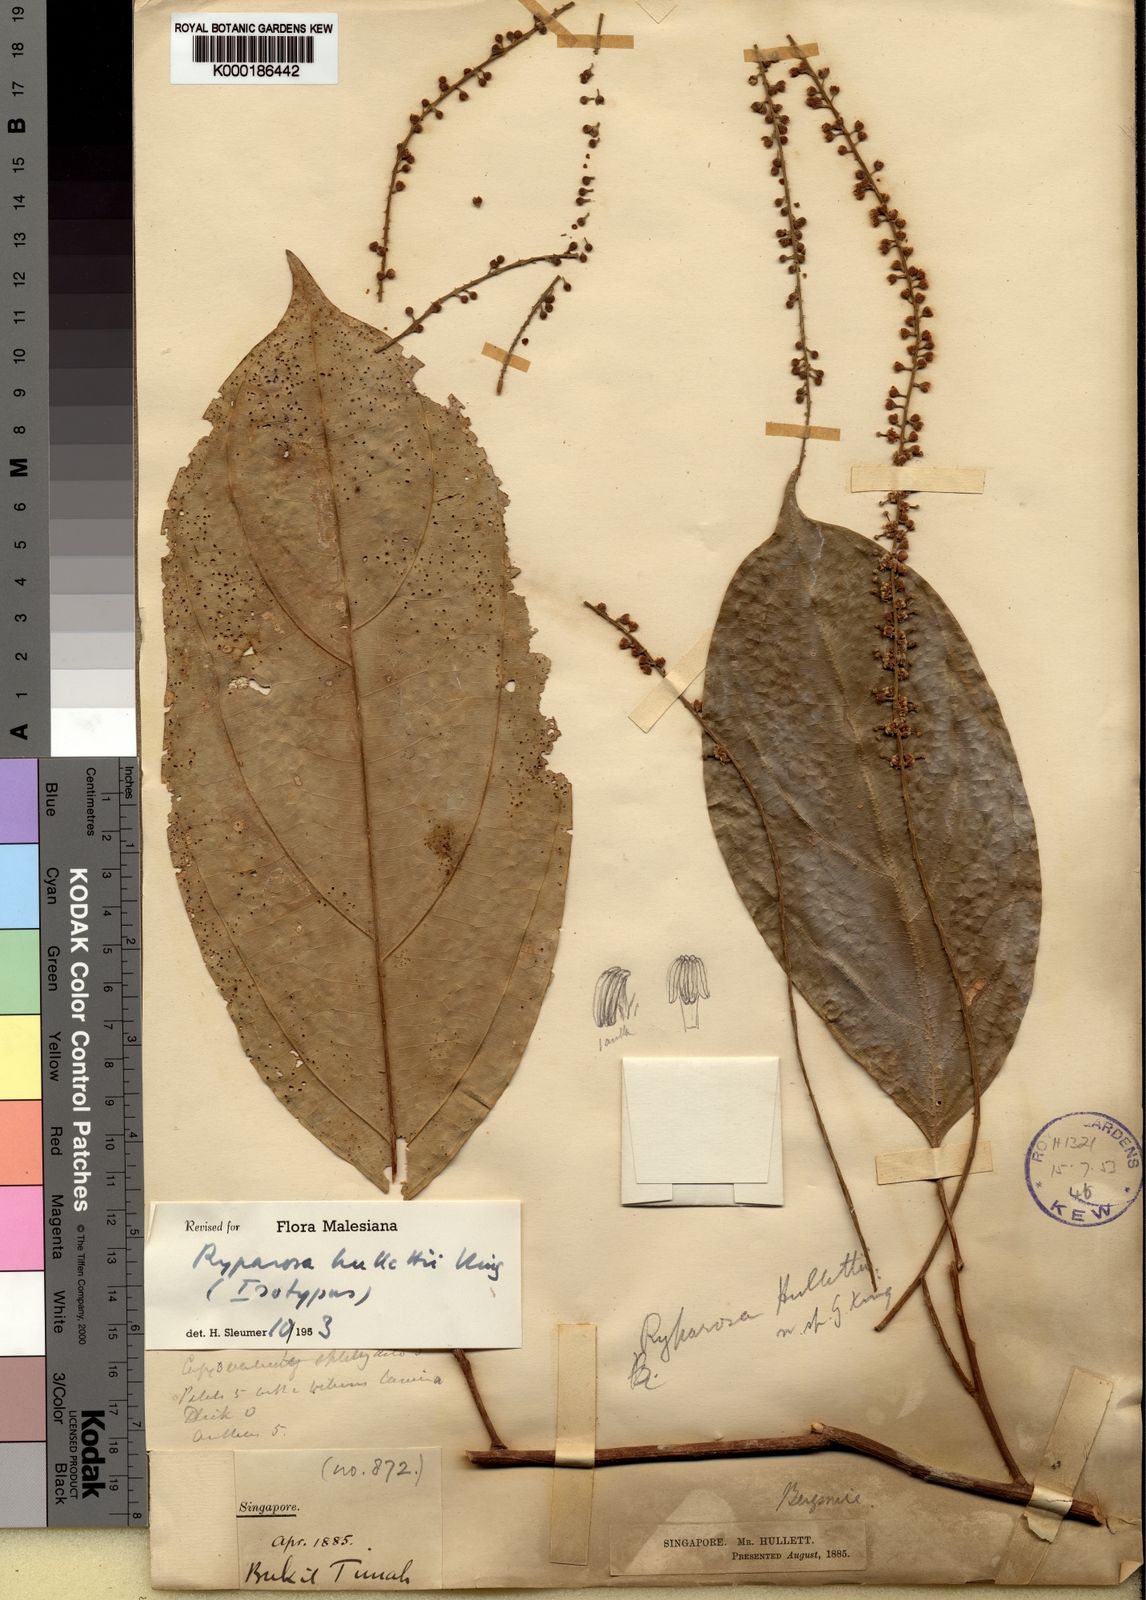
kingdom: Plantae
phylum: Tracheophyta
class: Magnoliopsida
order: Malpighiales
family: Achariaceae
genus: Ryparosa
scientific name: Ryparosa hullettii
